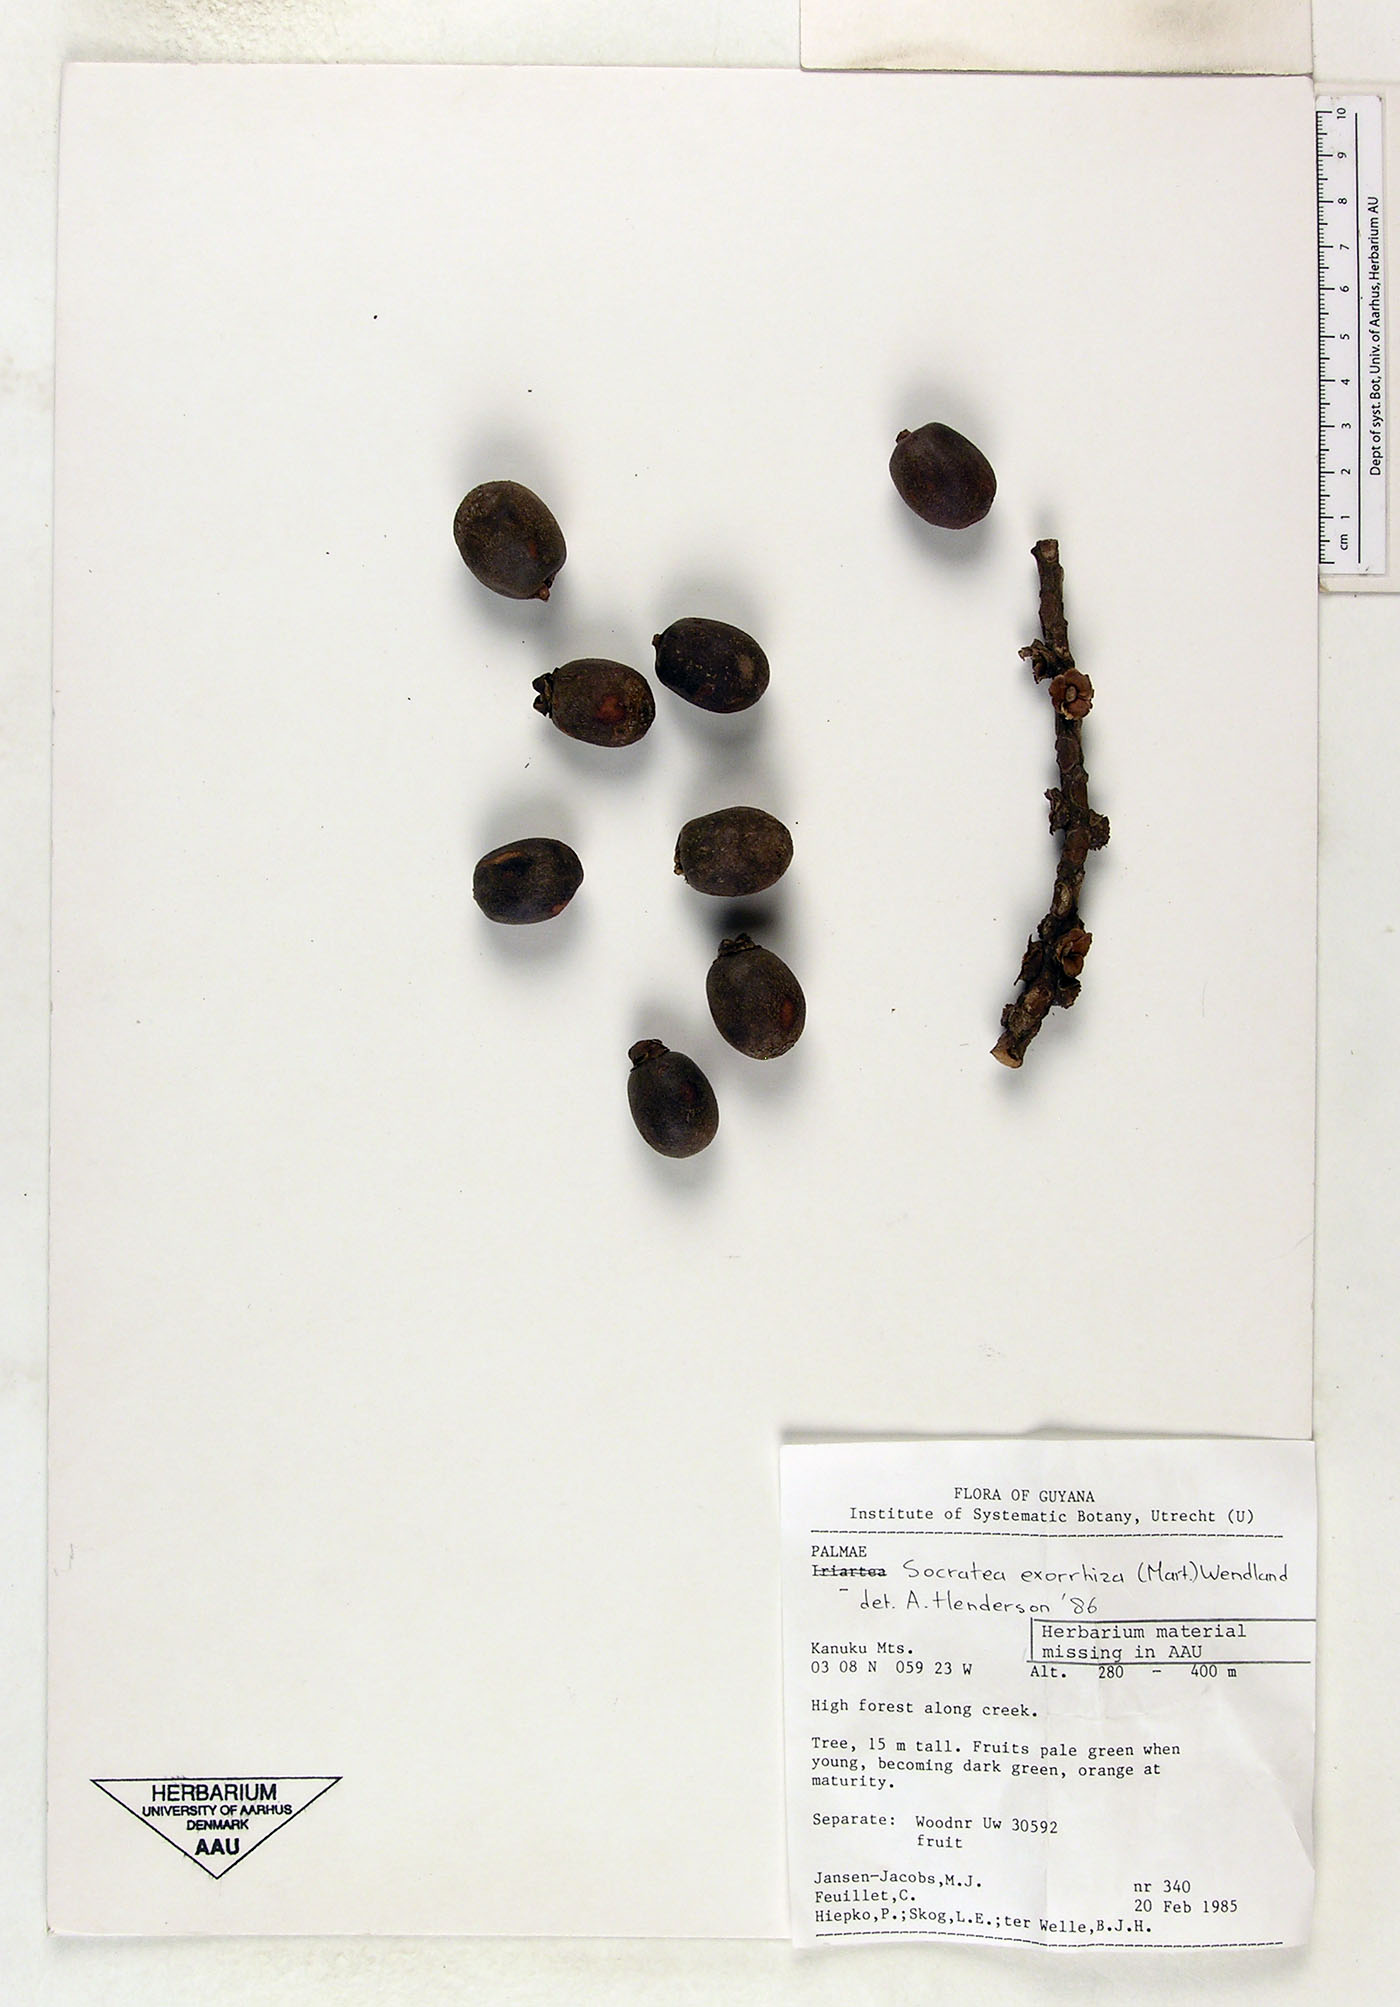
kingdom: Plantae
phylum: Tracheophyta
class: Liliopsida
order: Arecales
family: Arecaceae
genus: Socratea
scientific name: Socratea exorrhiza
